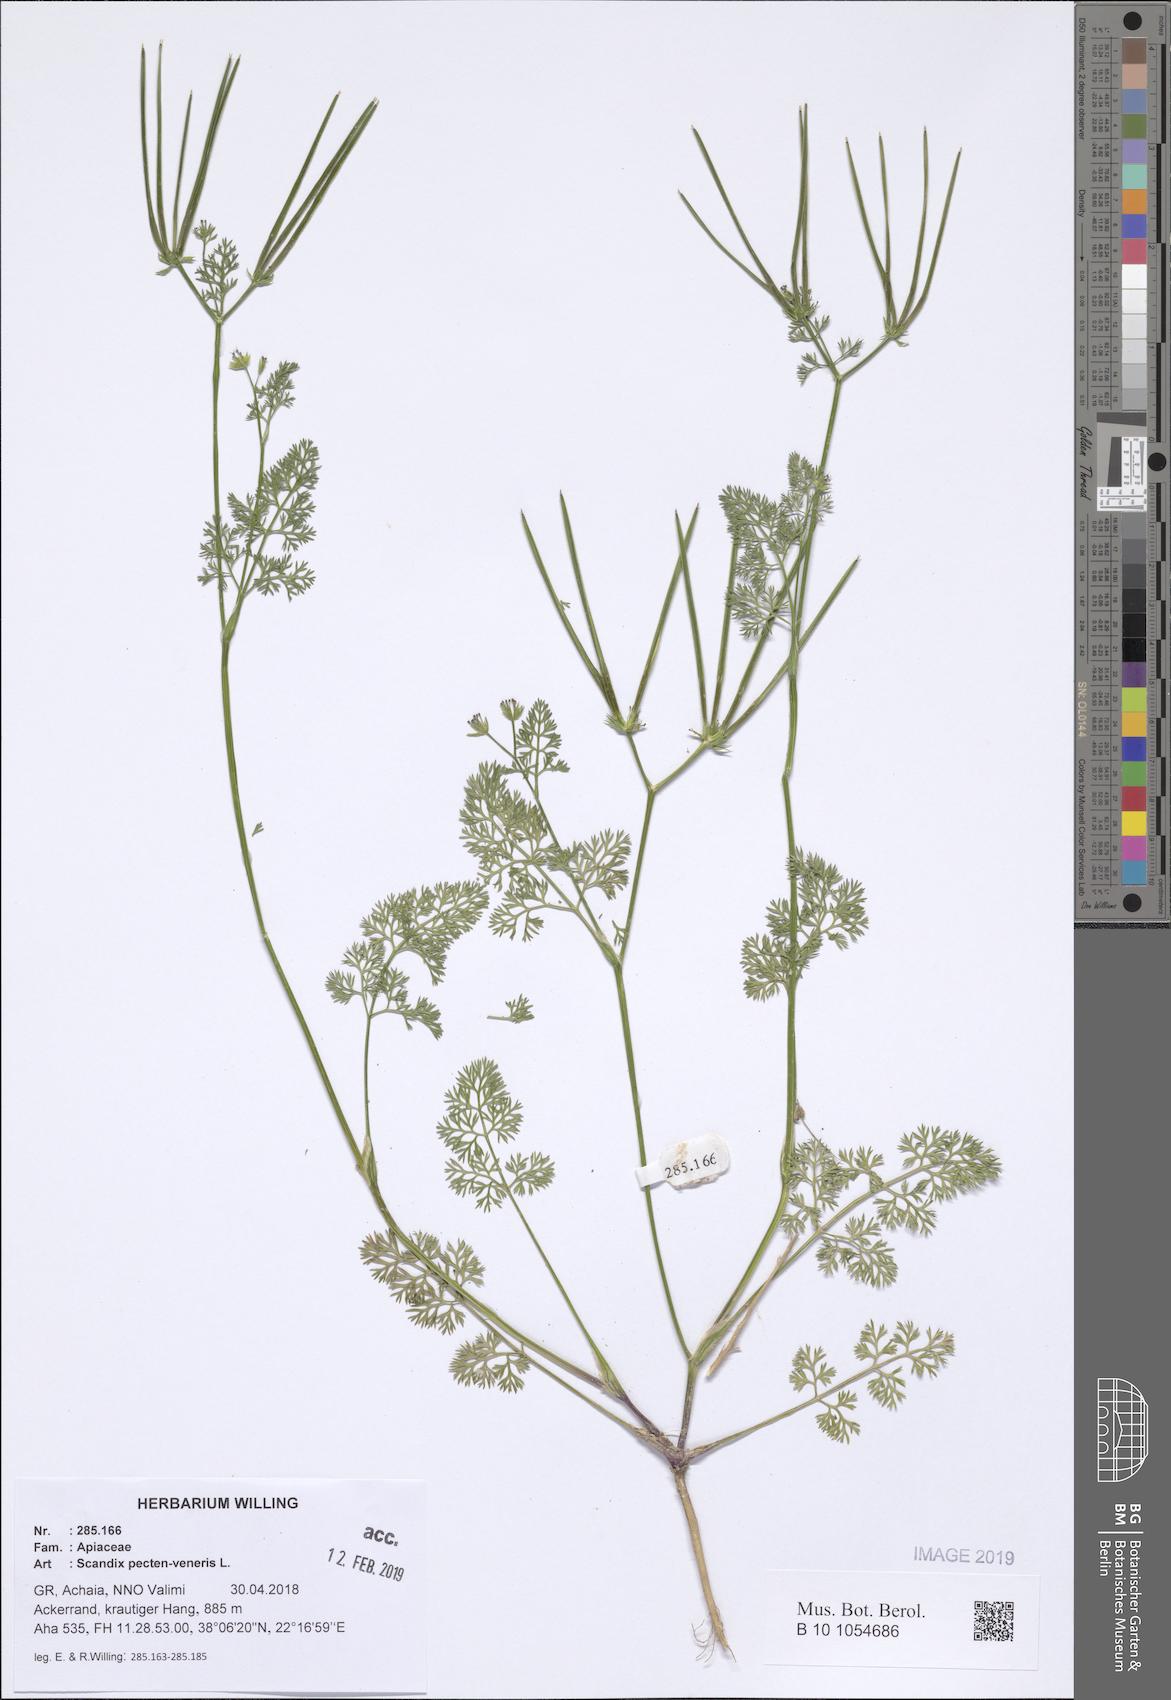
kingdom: Plantae
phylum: Tracheophyta
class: Magnoliopsida
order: Apiales
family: Apiaceae
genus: Scandix
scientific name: Scandix pecten-veneris
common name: Shepherd's-needle
